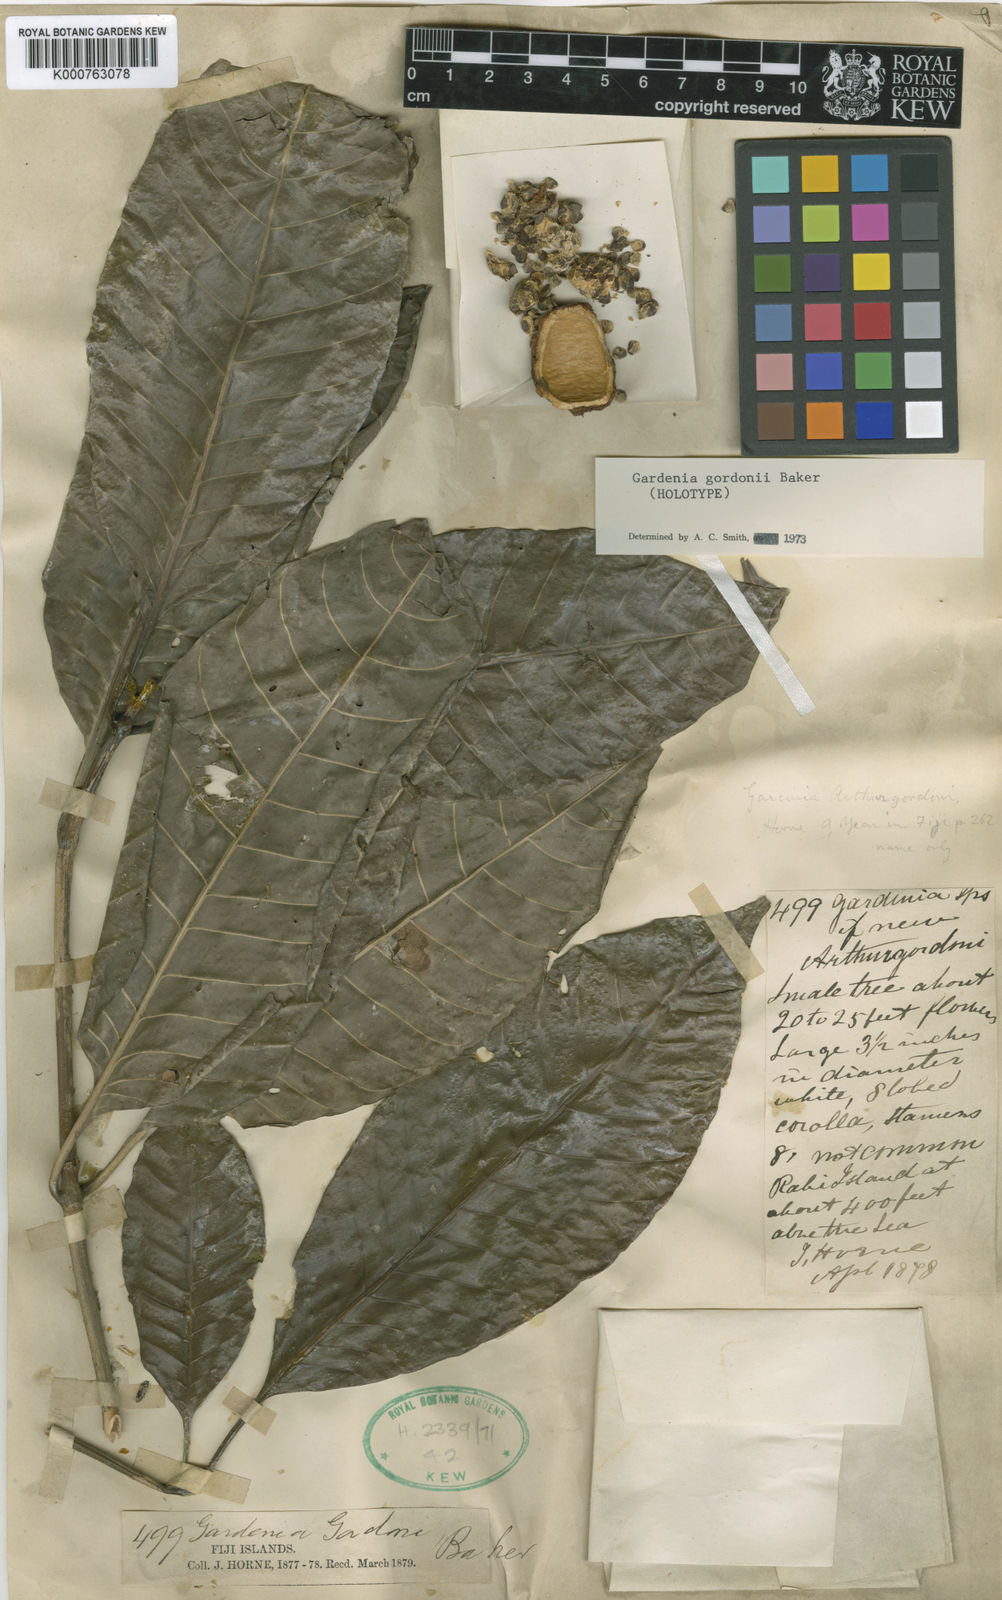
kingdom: Plantae
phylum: Tracheophyta
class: Magnoliopsida
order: Gentianales
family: Rubiaceae
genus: Gardenia
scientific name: Gardenia gordonii
